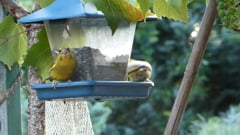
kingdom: Plantae
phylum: Tracheophyta
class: Liliopsida
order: Poales
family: Poaceae
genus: Chloris
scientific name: Chloris chloris
